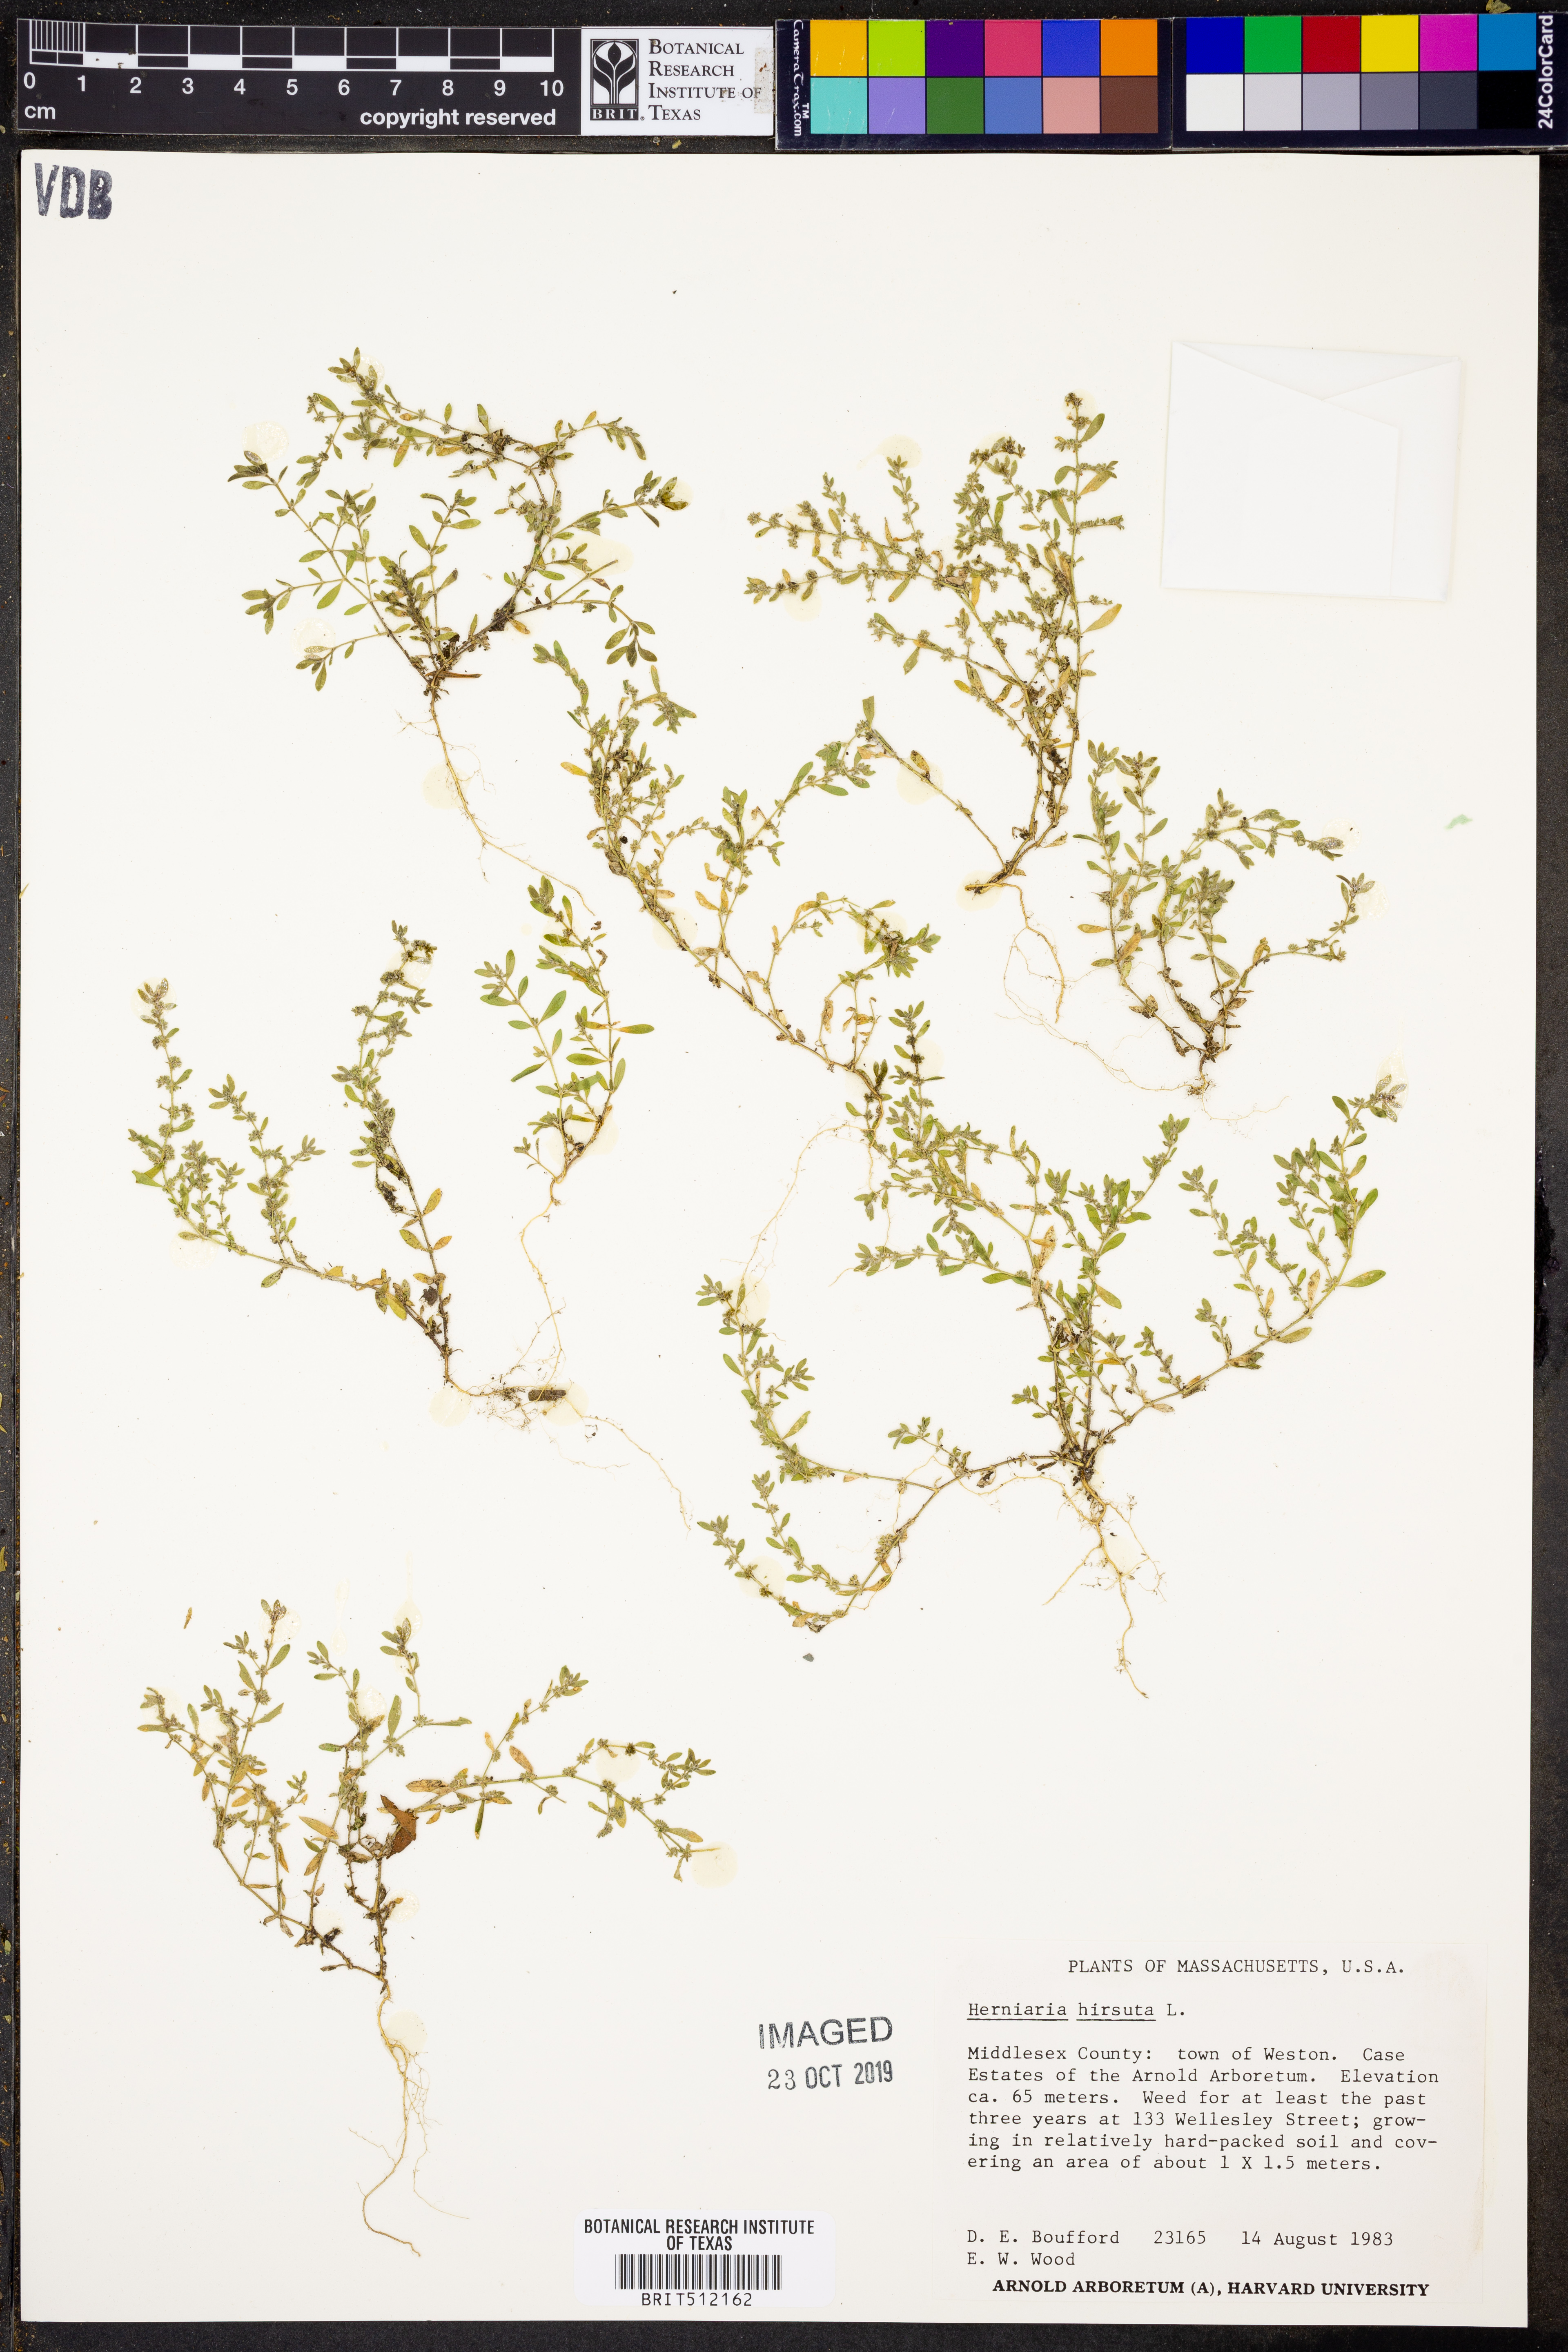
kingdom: Plantae
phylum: Tracheophyta
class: Magnoliopsida
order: Caryophyllales
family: Caryophyllaceae
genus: Herniaria
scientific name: Herniaria hirsuta
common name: Hairy rupturewort
